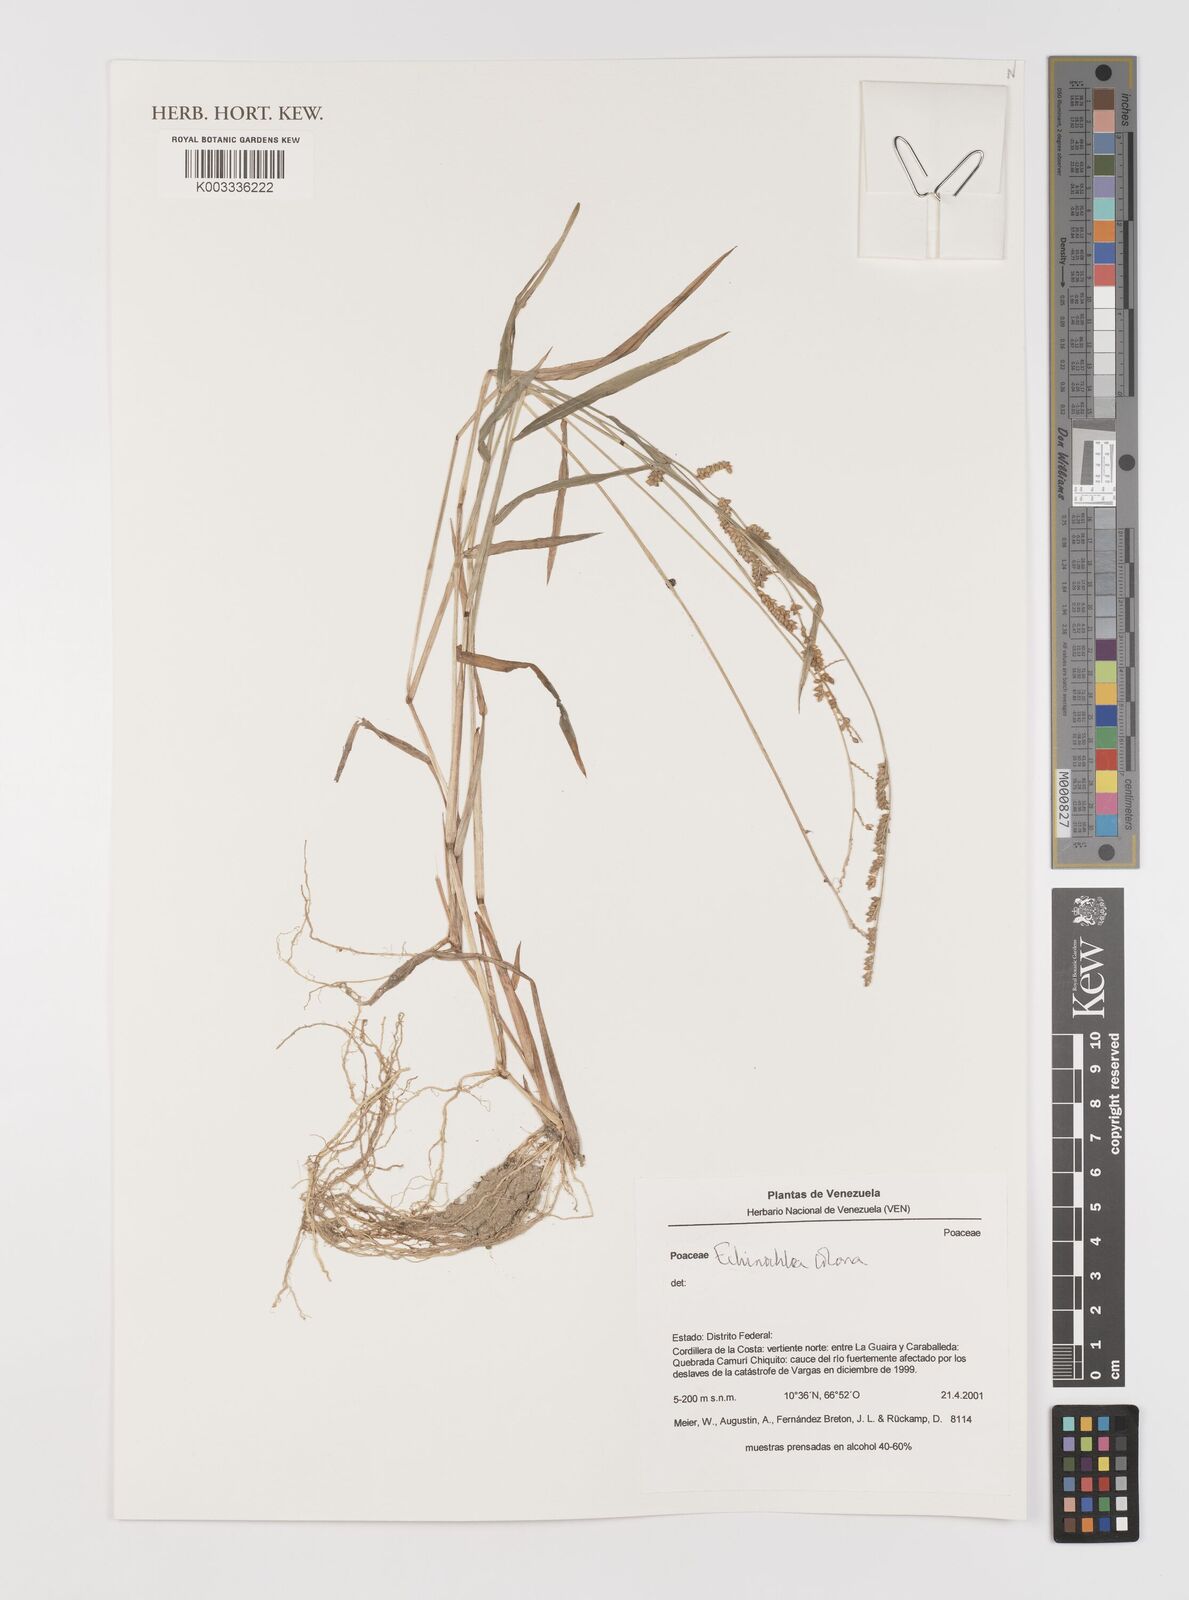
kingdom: Plantae
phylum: Tracheophyta
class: Liliopsida
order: Poales
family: Poaceae
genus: Echinochloa
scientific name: Echinochloa colonum
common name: Jungle rice
